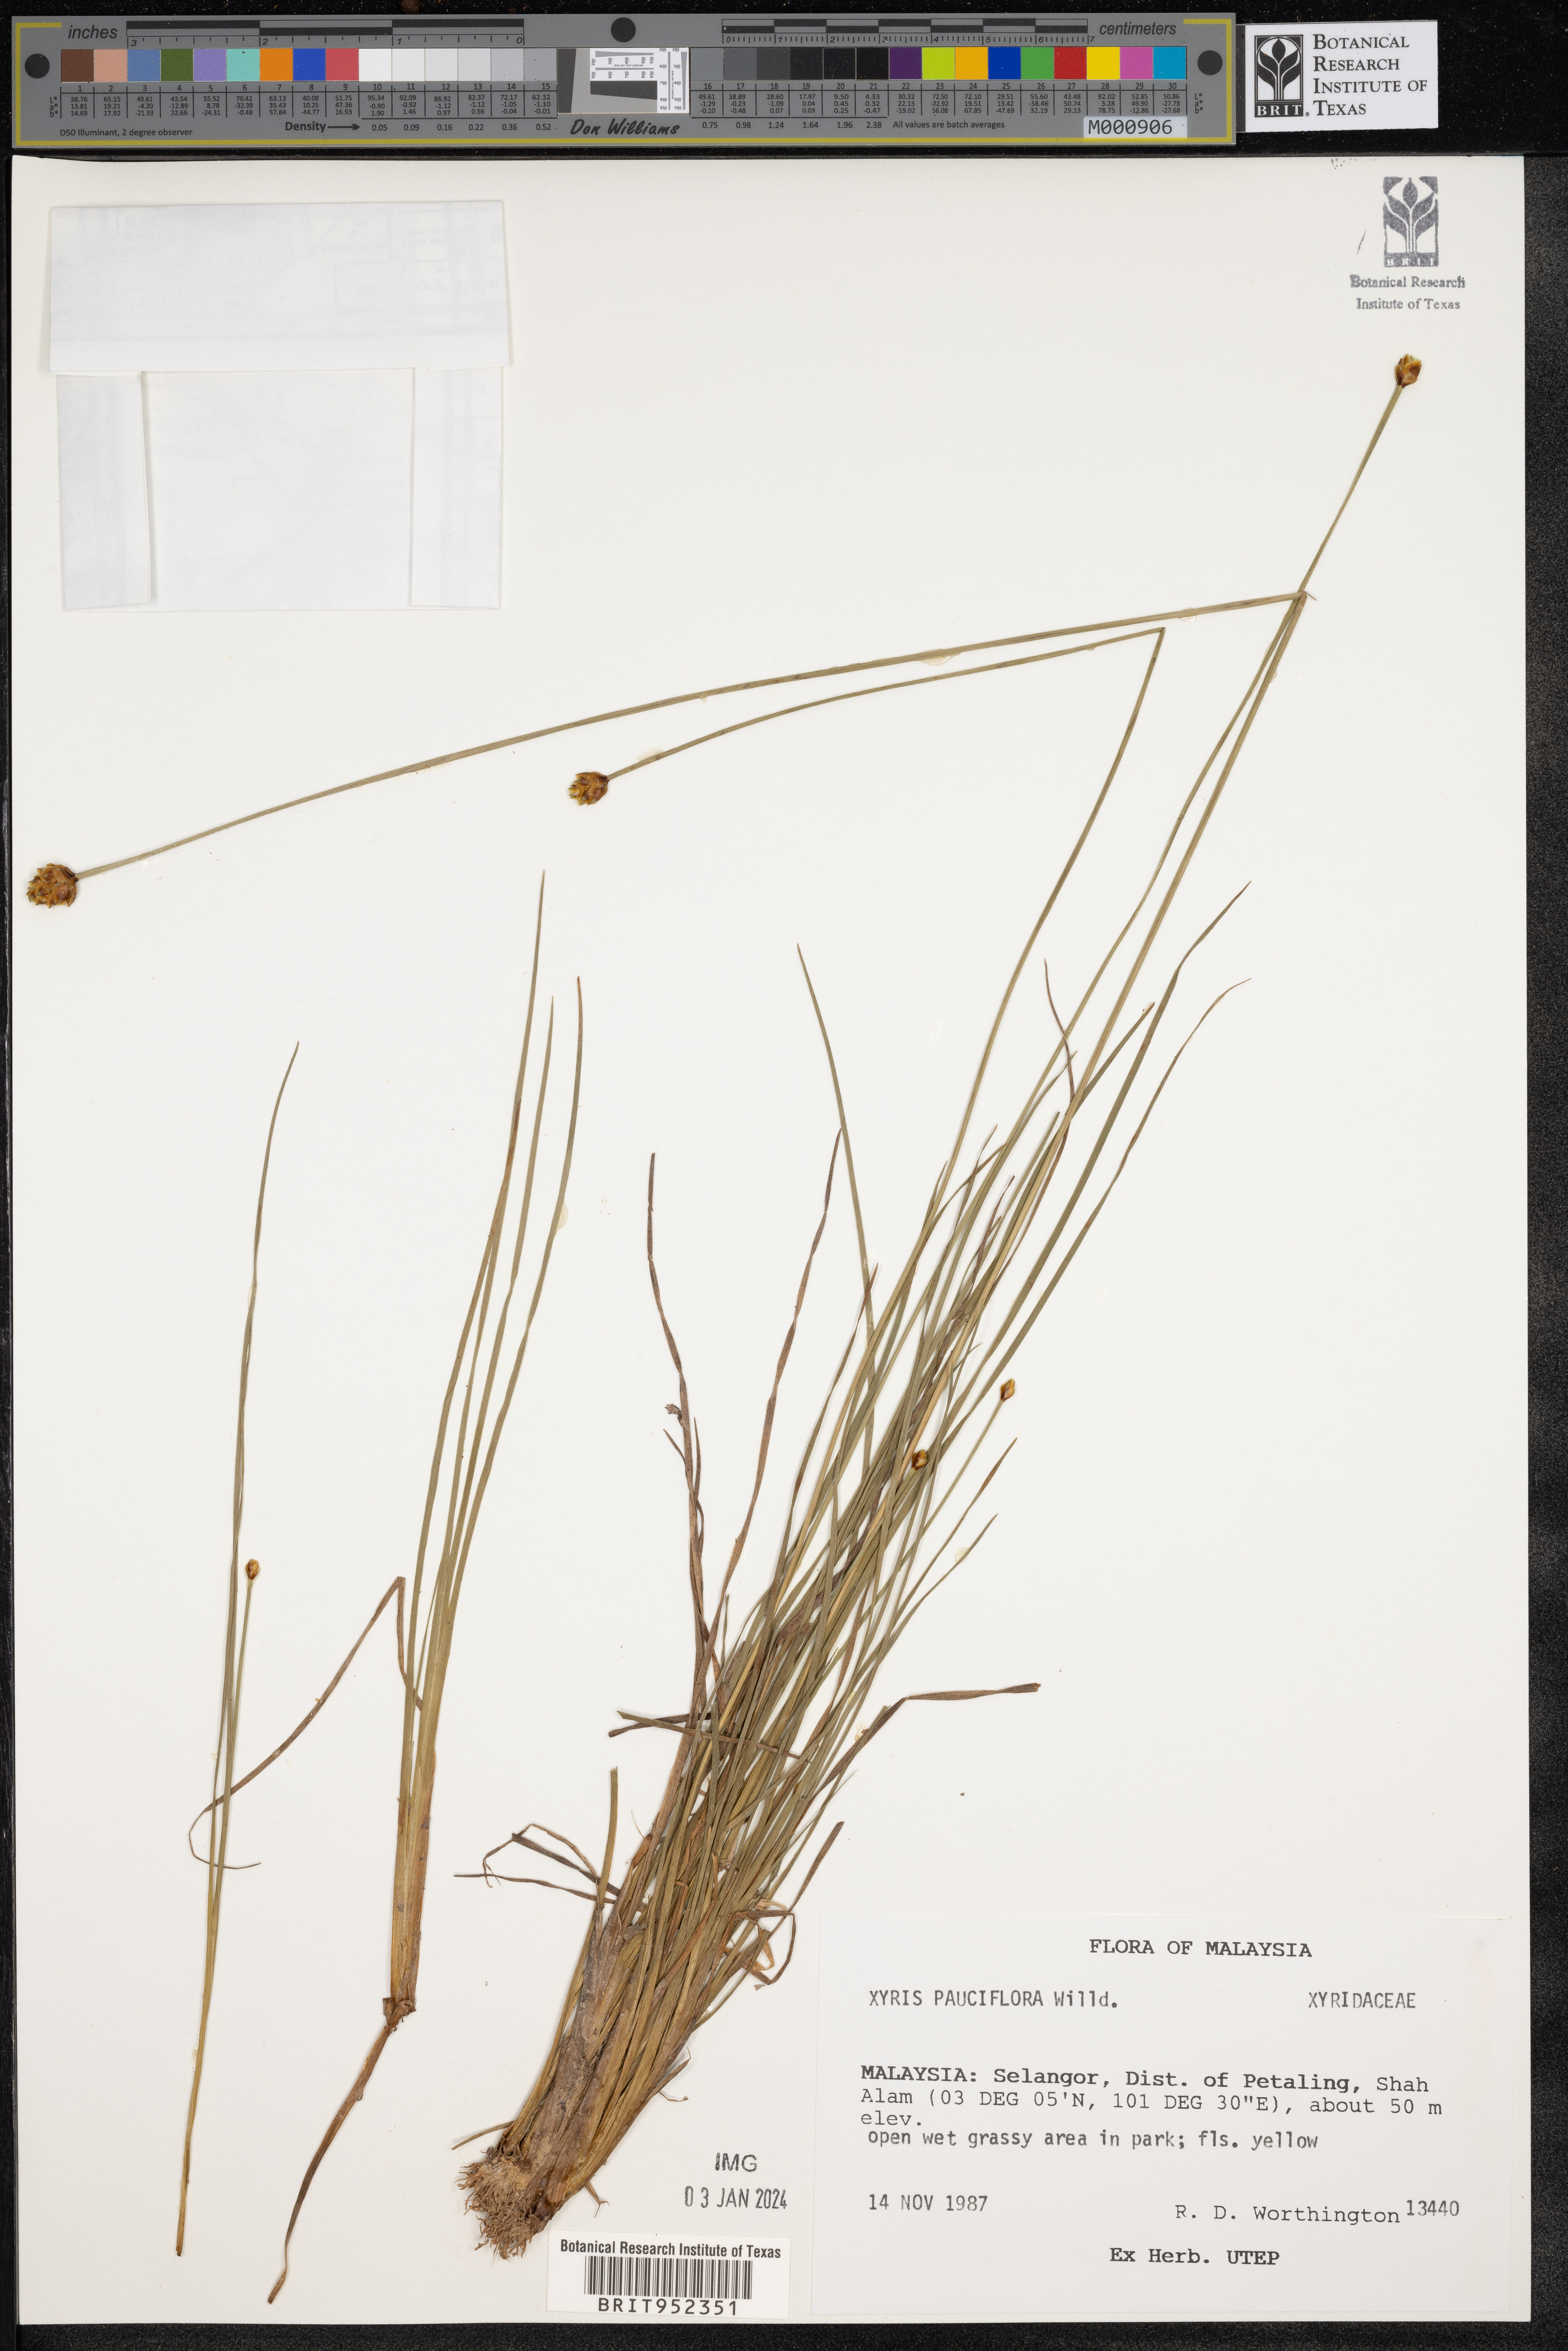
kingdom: Plantae
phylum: Tracheophyta
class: Liliopsida
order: Poales
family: Xyridaceae
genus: Xyris
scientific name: Xyris
